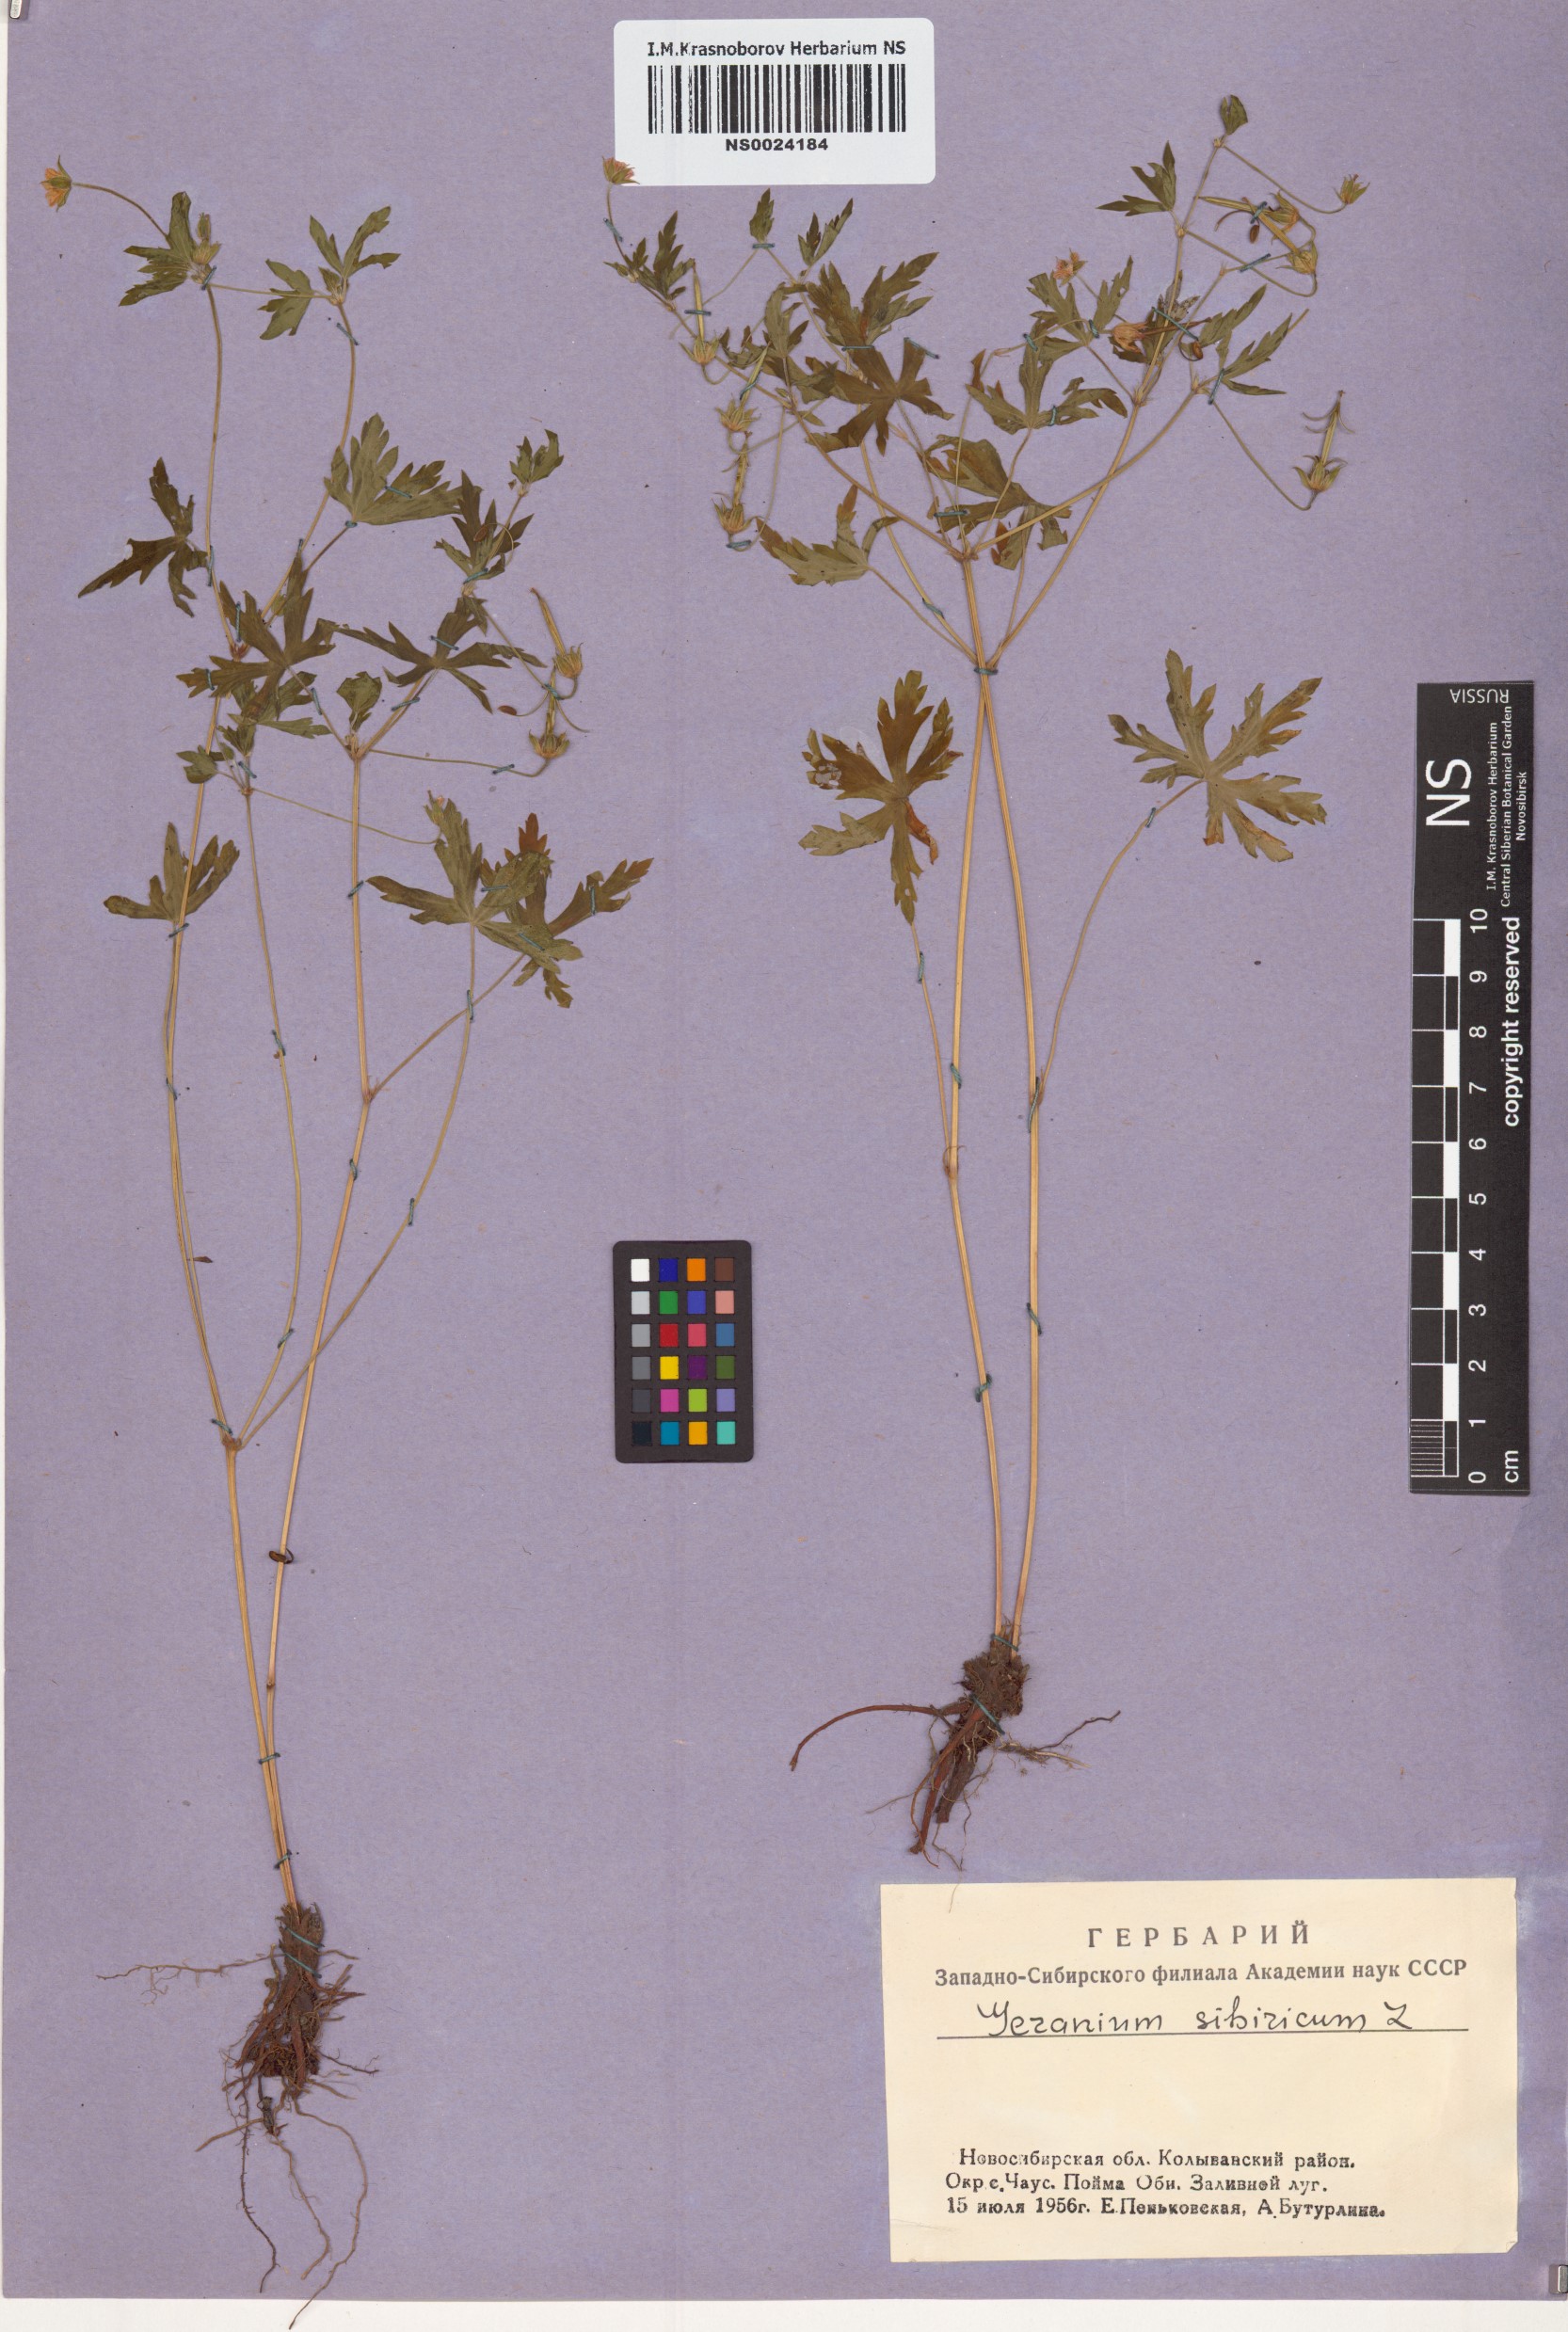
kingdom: Plantae
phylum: Tracheophyta
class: Magnoliopsida
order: Geraniales
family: Geraniaceae
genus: Geranium
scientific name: Geranium sibiricum
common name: Siberian crane's-bill
